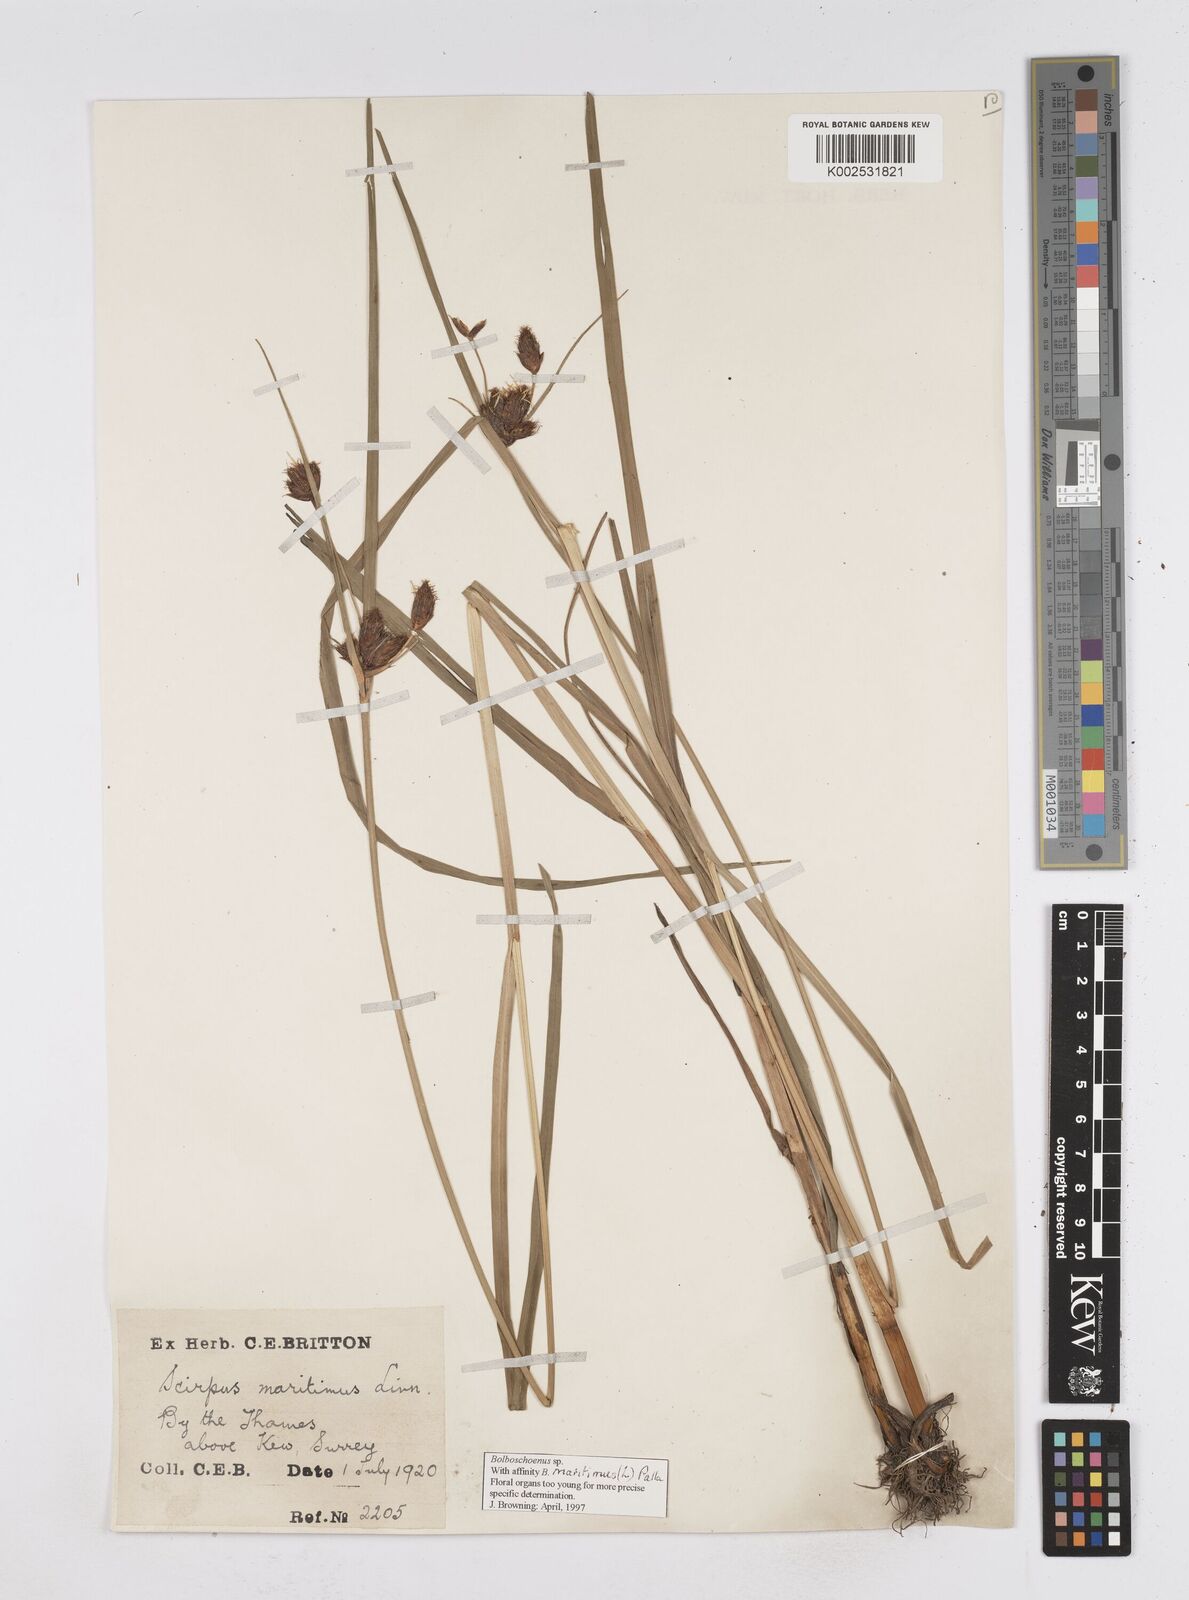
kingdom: Plantae
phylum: Tracheophyta
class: Liliopsida
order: Poales
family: Cyperaceae
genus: Bolboschoenus
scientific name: Bolboschoenus maritimus
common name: Sea club-rush
